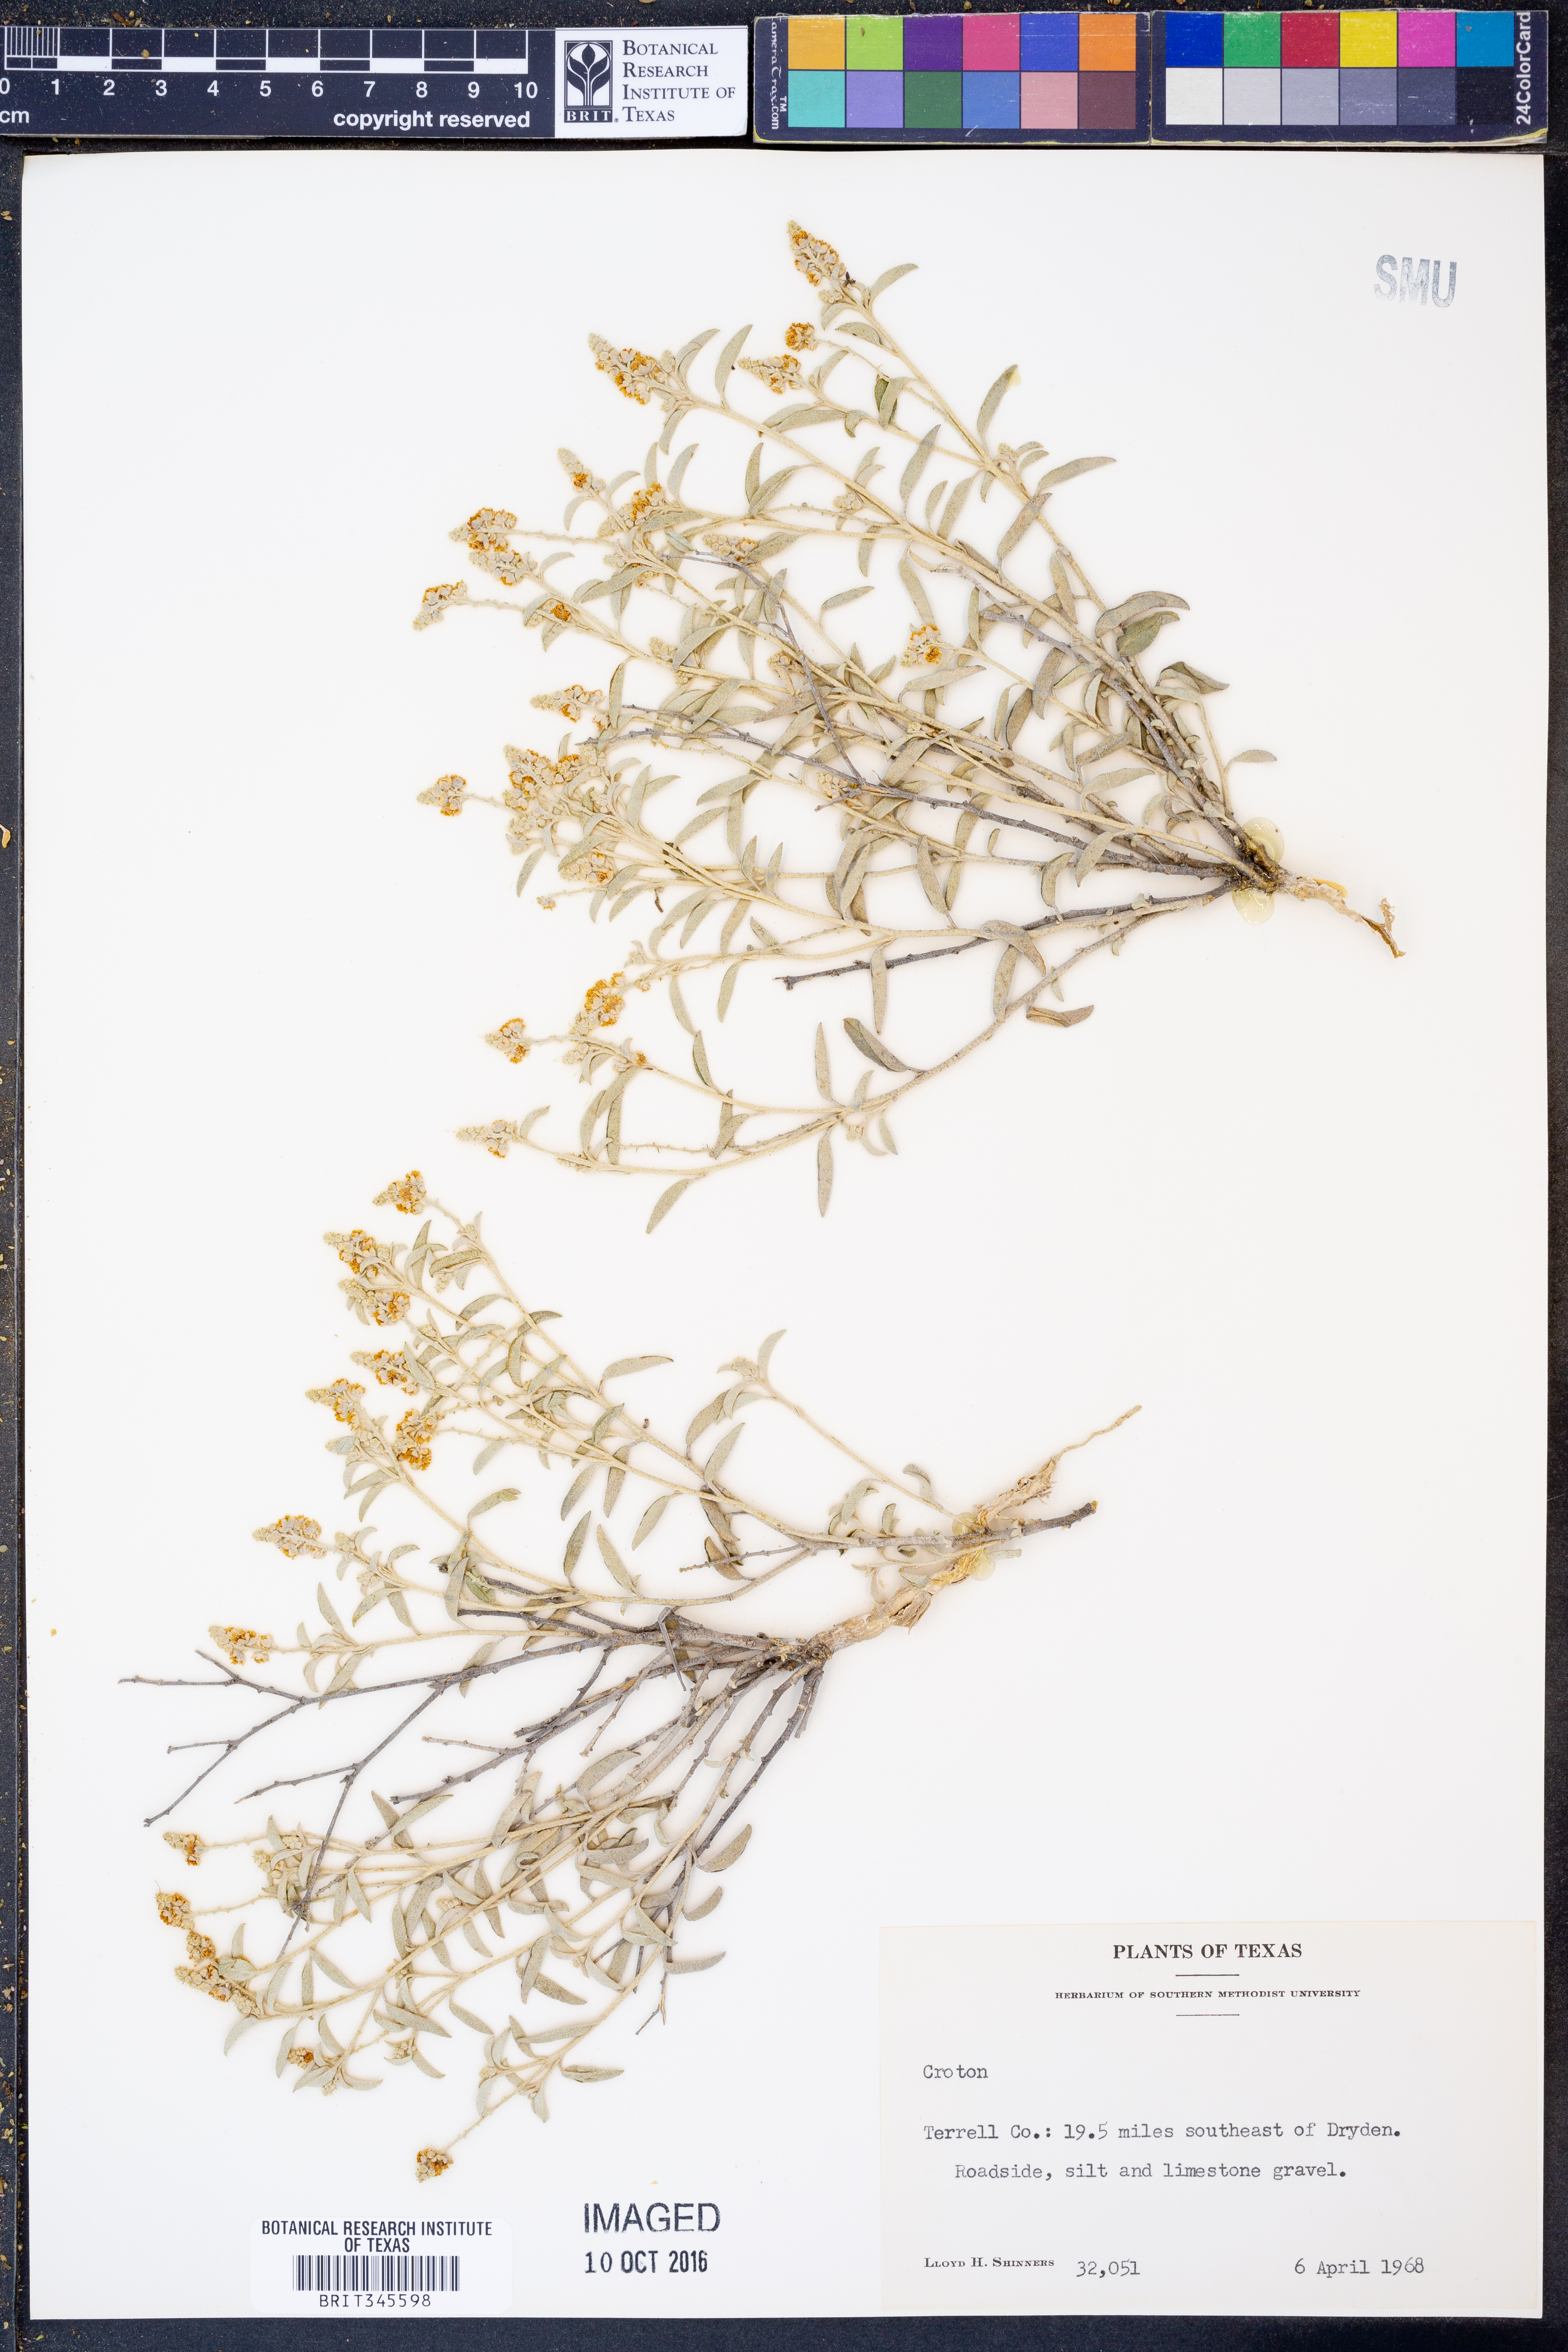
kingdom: Plantae
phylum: Tracheophyta
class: Magnoliopsida
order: Malpighiales
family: Euphorbiaceae
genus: Croton
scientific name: Croton
